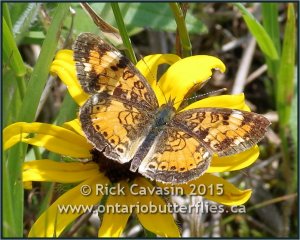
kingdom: Animalia
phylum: Arthropoda
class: Insecta
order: Lepidoptera
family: Nymphalidae
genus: Phyciodes
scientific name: Phyciodes tharos
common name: Northern Crescent
